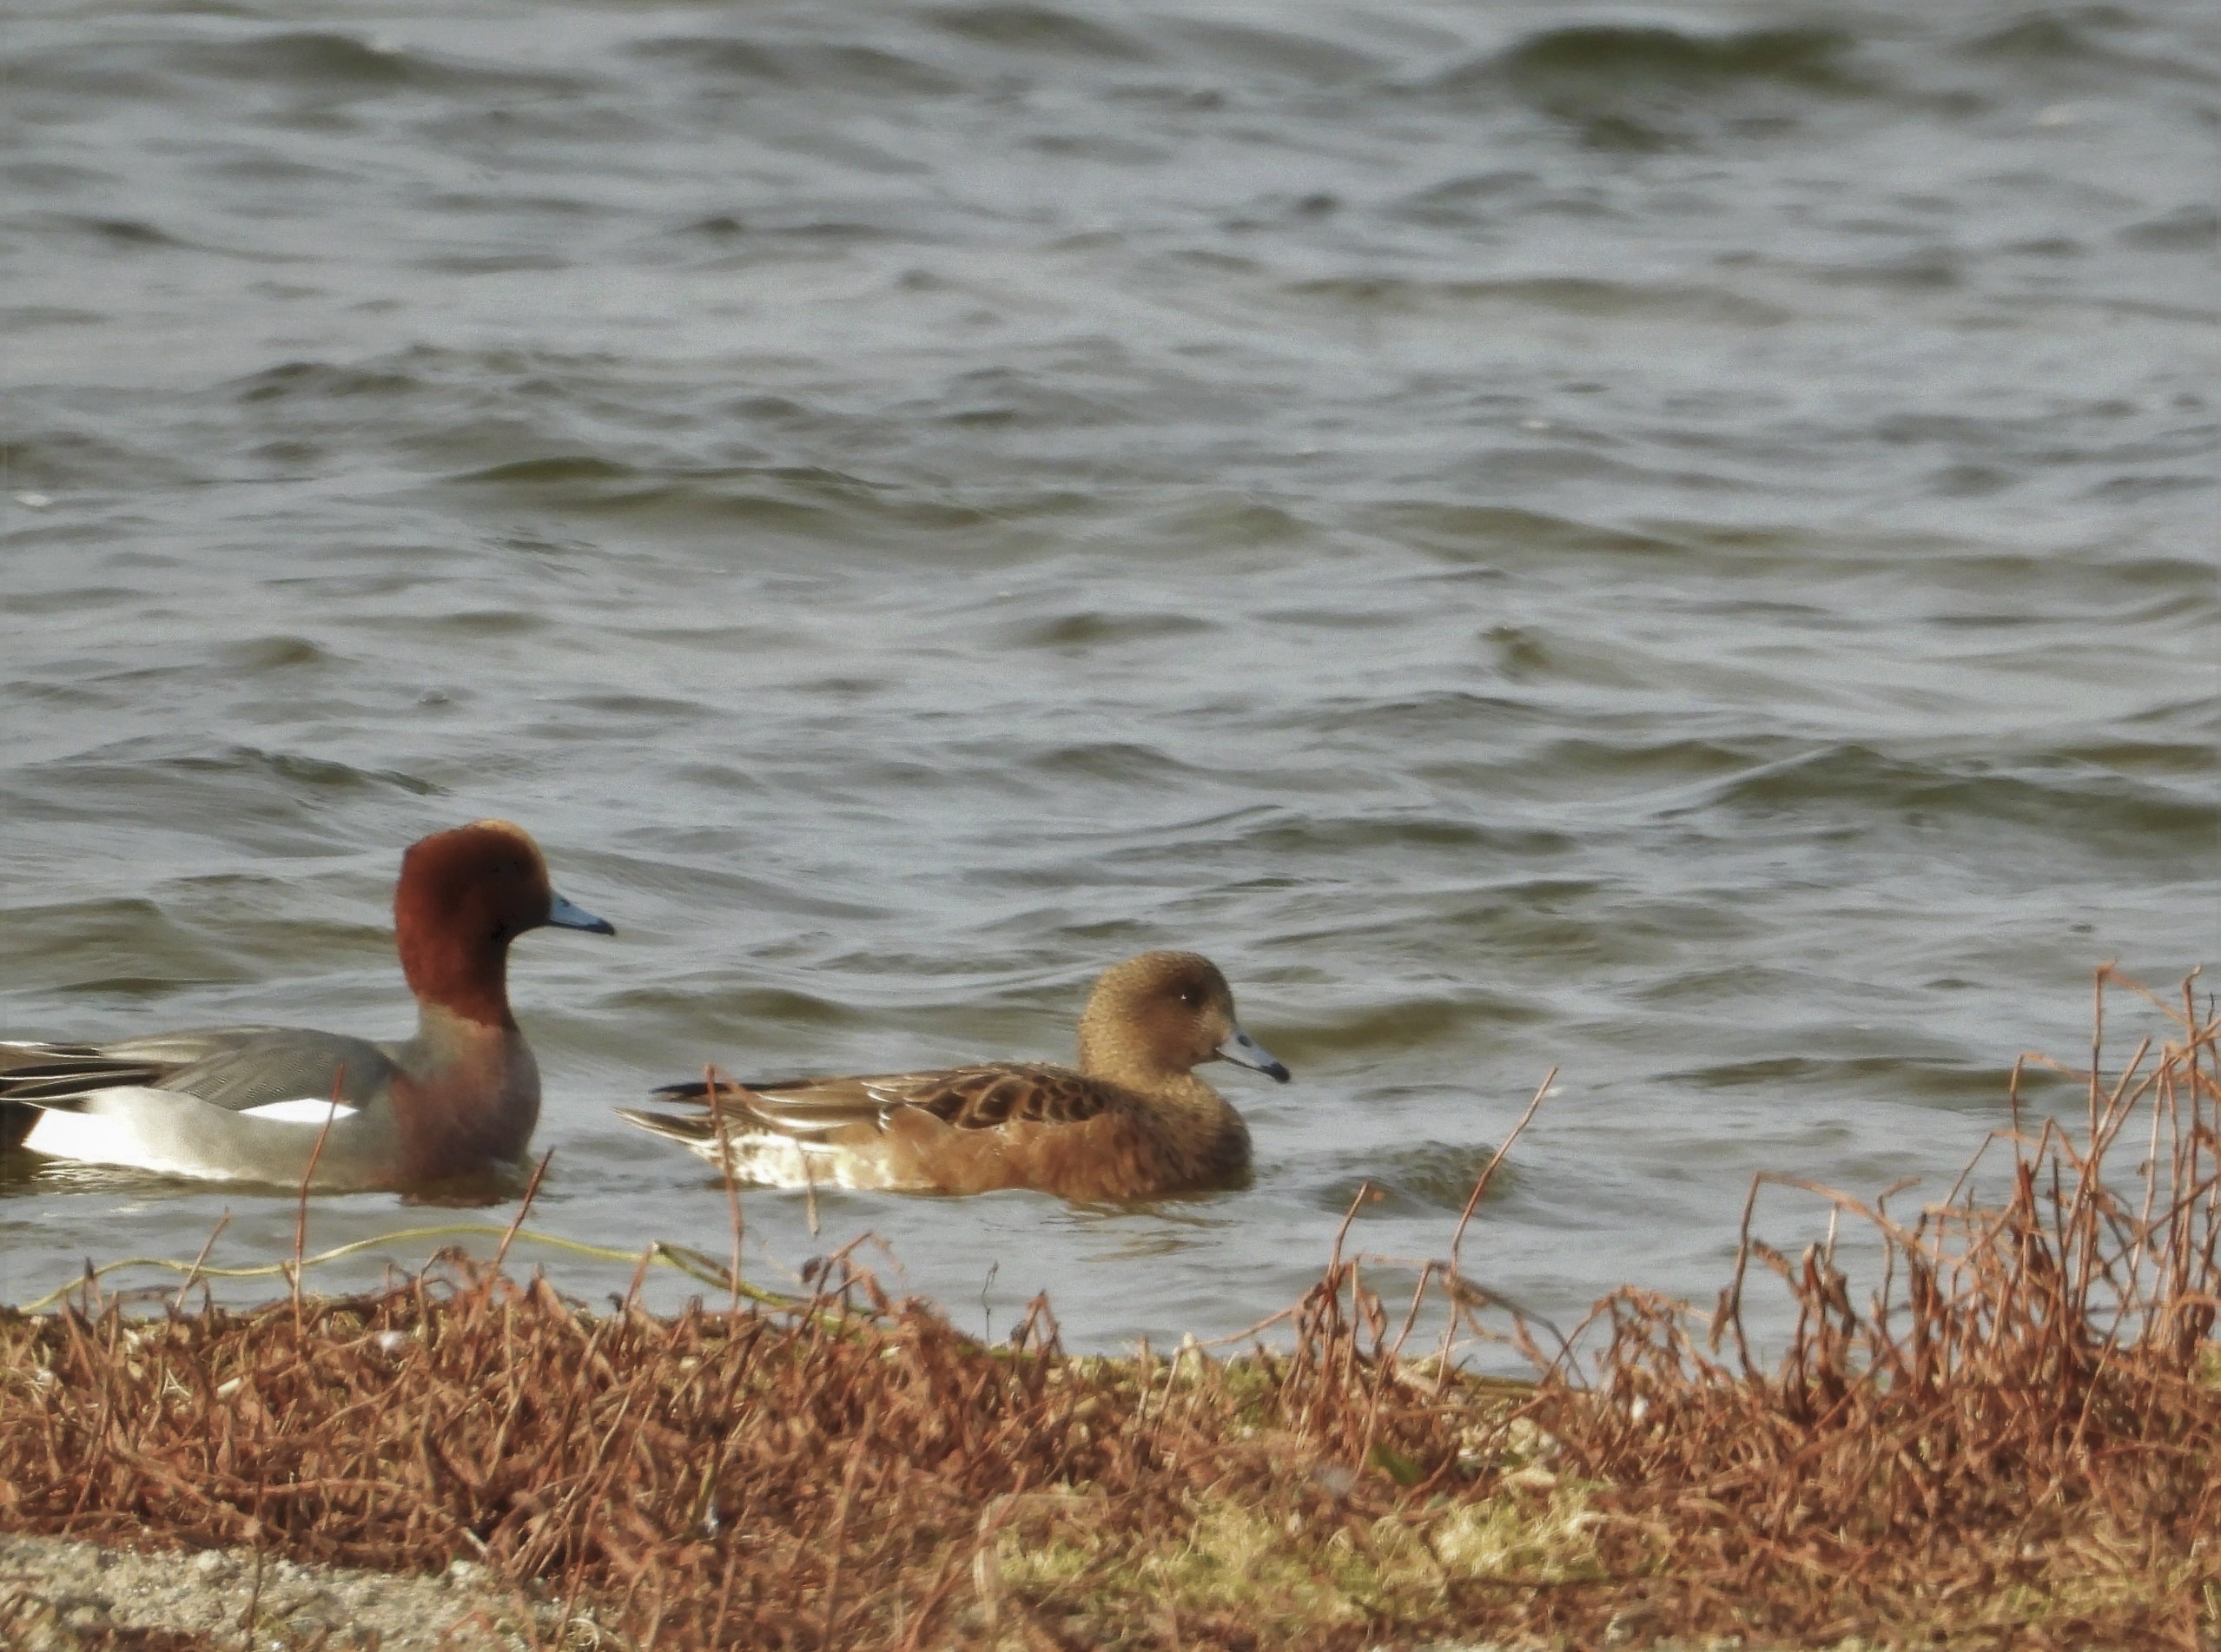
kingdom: Animalia
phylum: Chordata
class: Aves
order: Anseriformes
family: Anatidae
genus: Mareca
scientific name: Mareca penelope
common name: Pibeand
